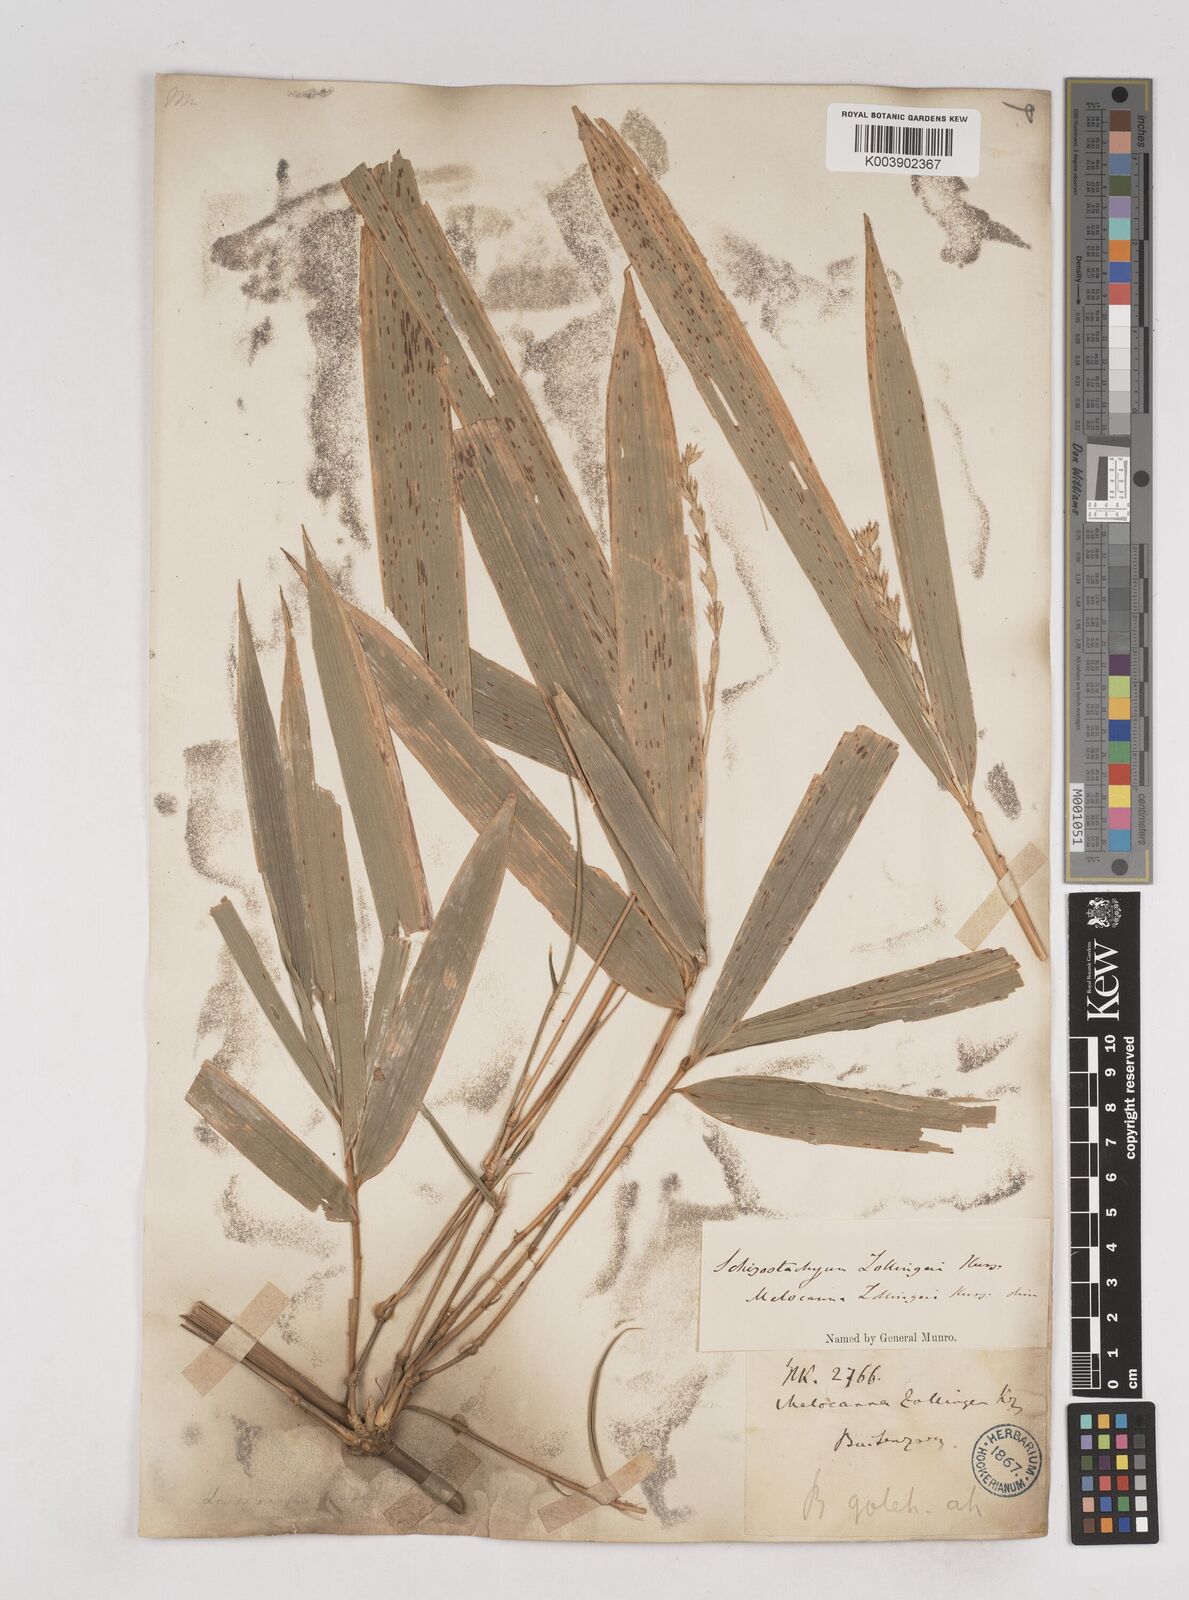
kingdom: Plantae
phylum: Tracheophyta
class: Liliopsida
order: Poales
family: Poaceae
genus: Schizostachyum
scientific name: Schizostachyum zollingeri
